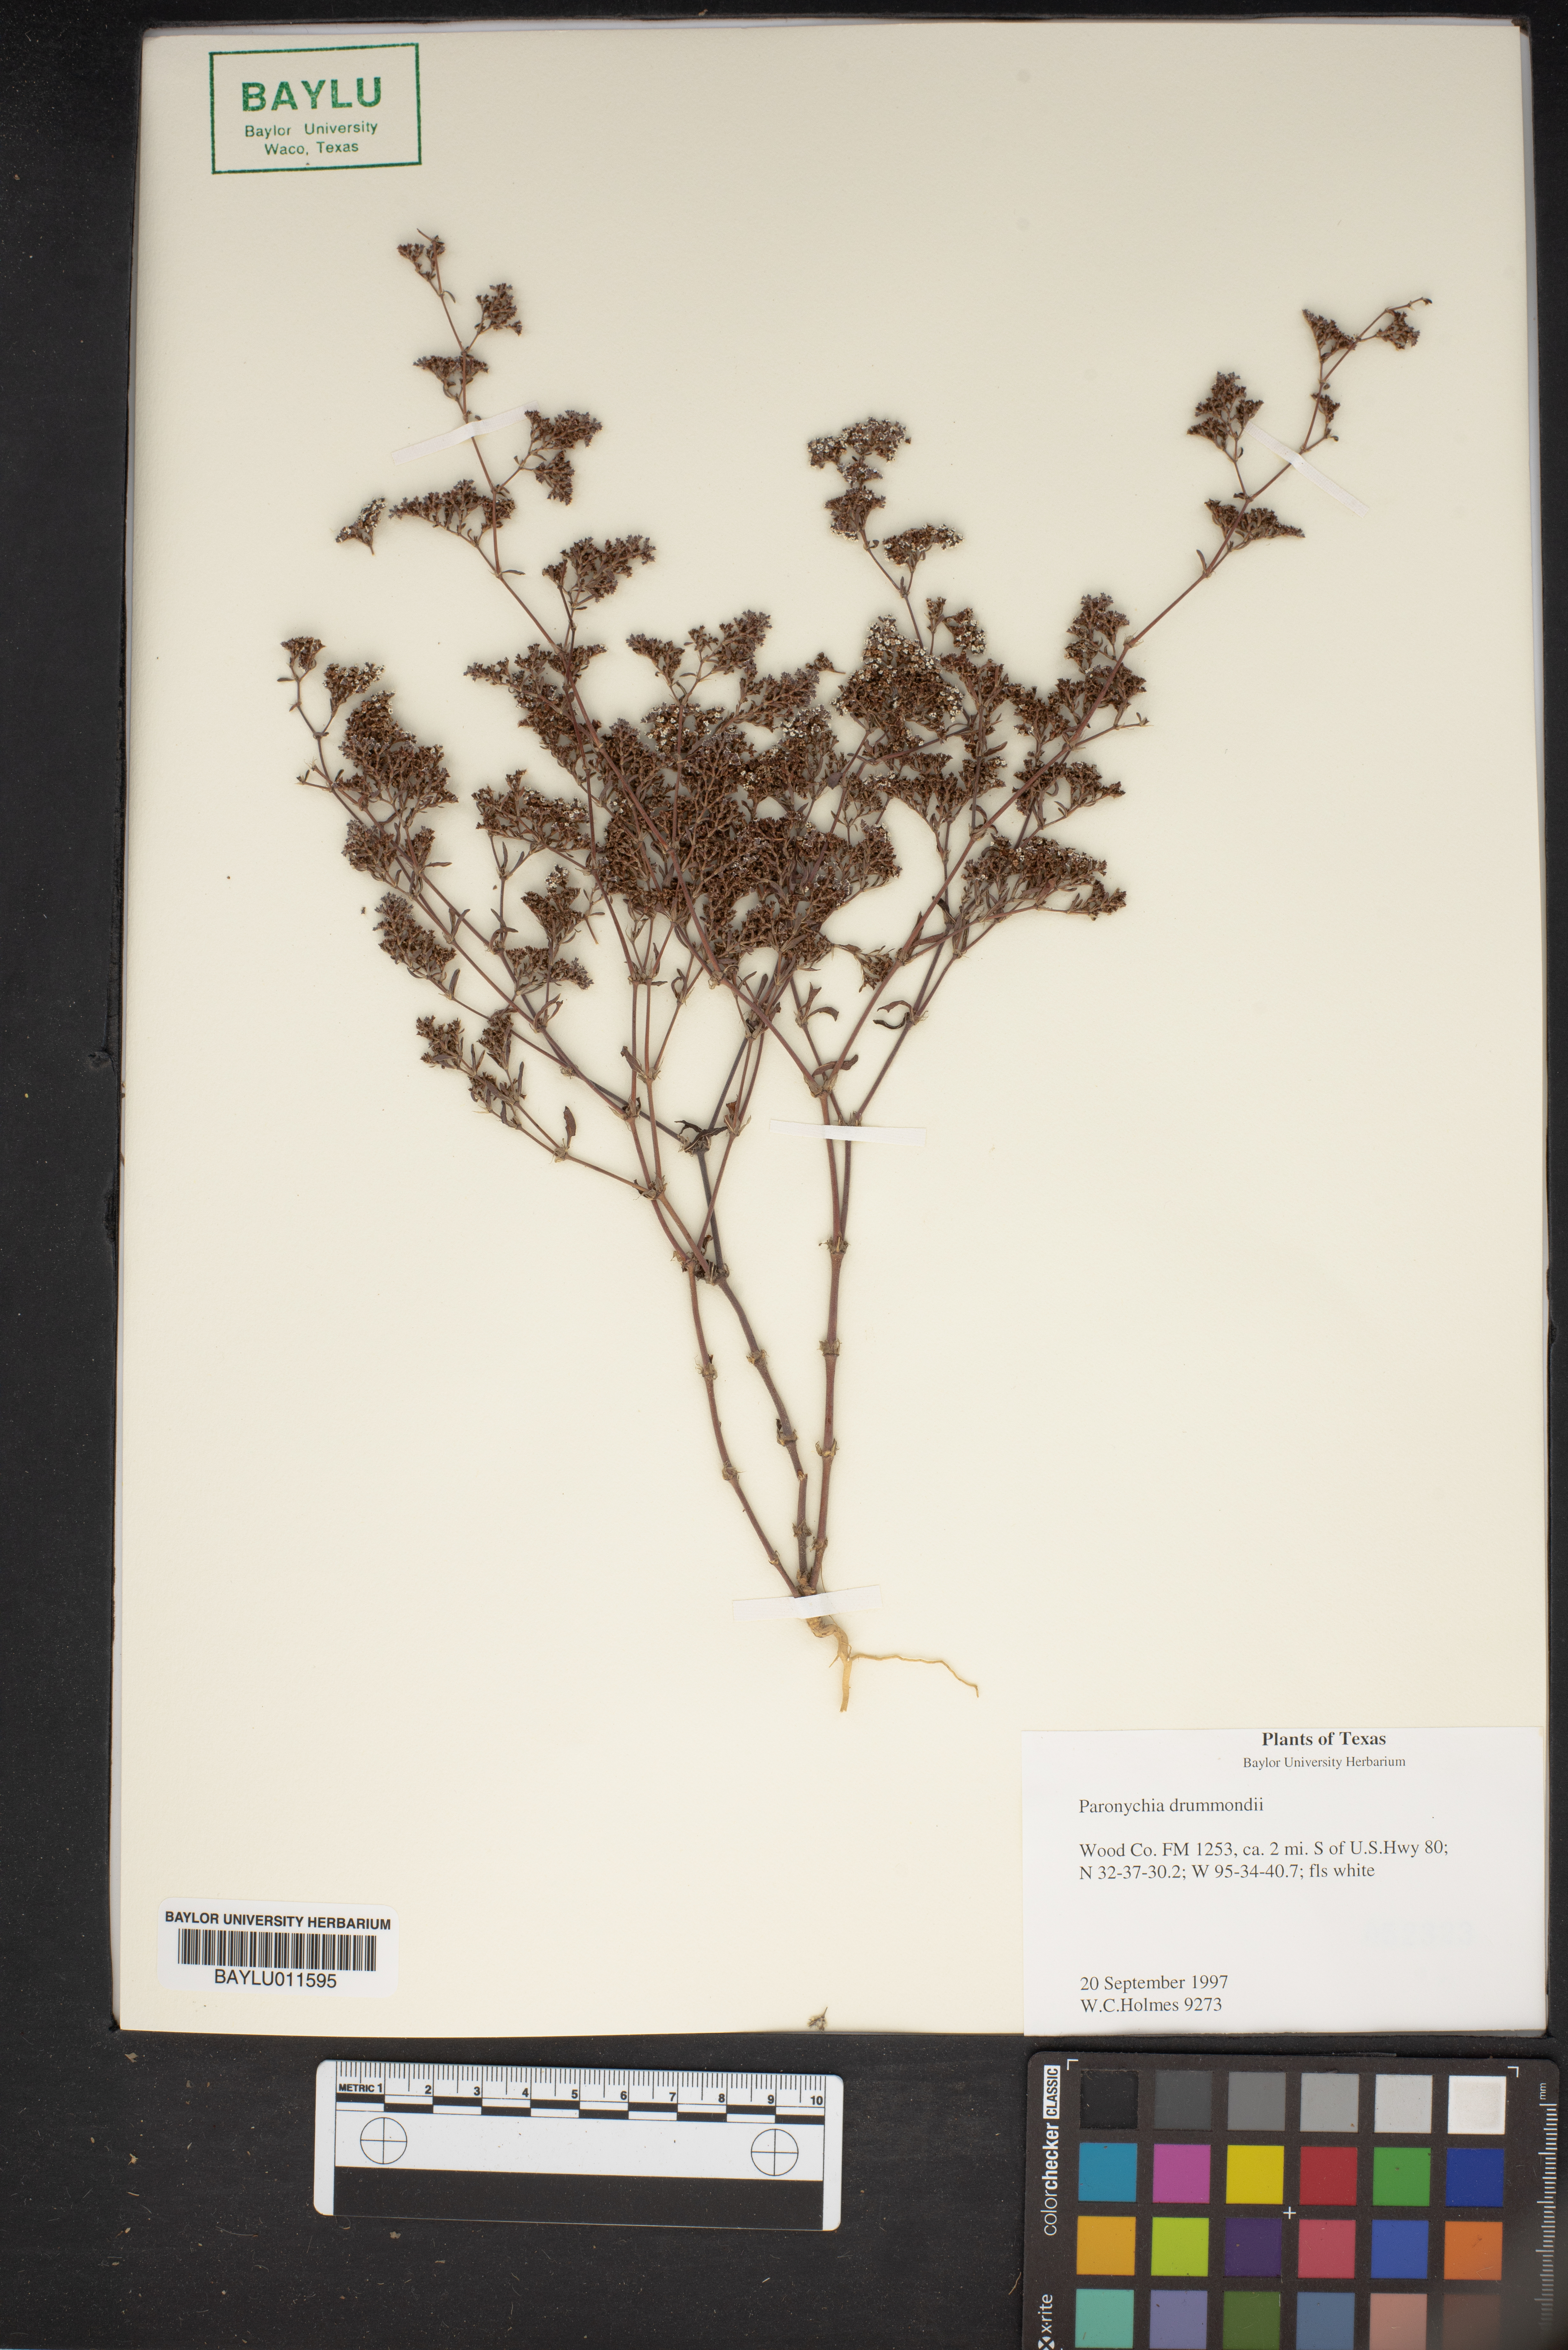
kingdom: Plantae
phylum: Tracheophyta
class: Magnoliopsida
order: Caryophyllales
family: Caryophyllaceae
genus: Paronychia
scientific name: Paronychia drummondii
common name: Drummond's nailwort
